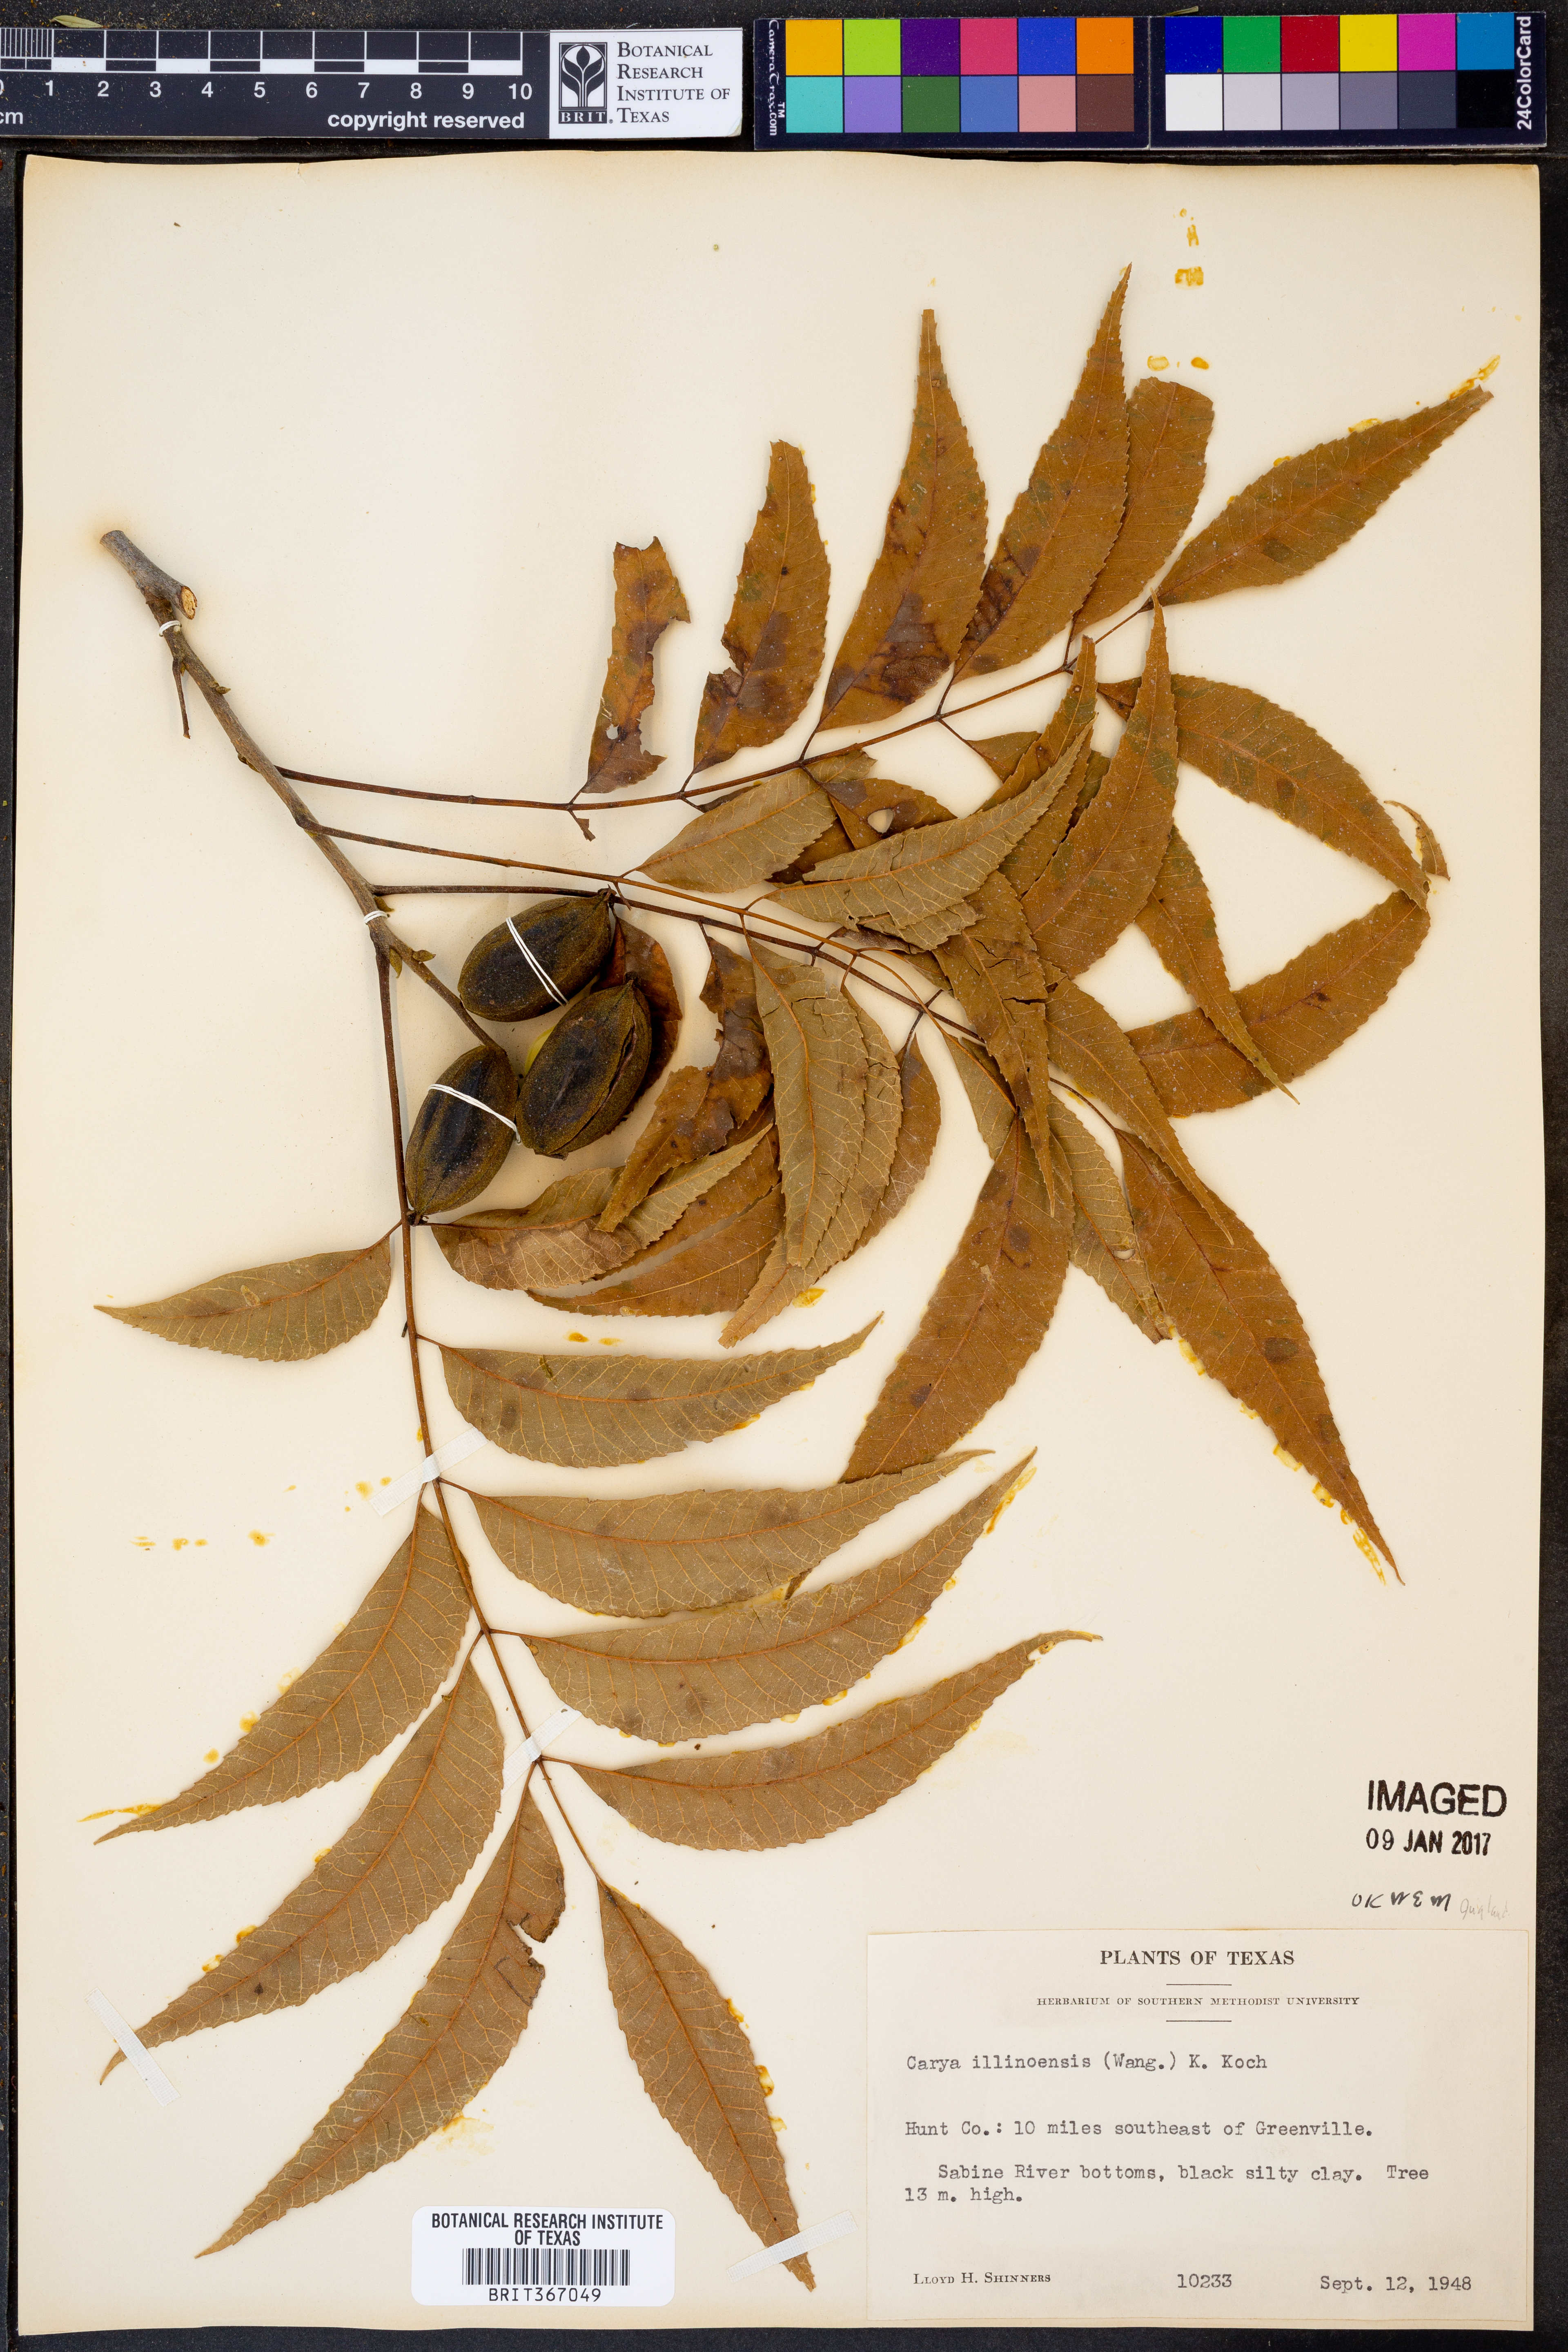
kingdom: Plantae
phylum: Tracheophyta
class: Magnoliopsida
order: Fagales
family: Juglandaceae
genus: Carya
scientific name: Carya illinoinensis
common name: Pecan
